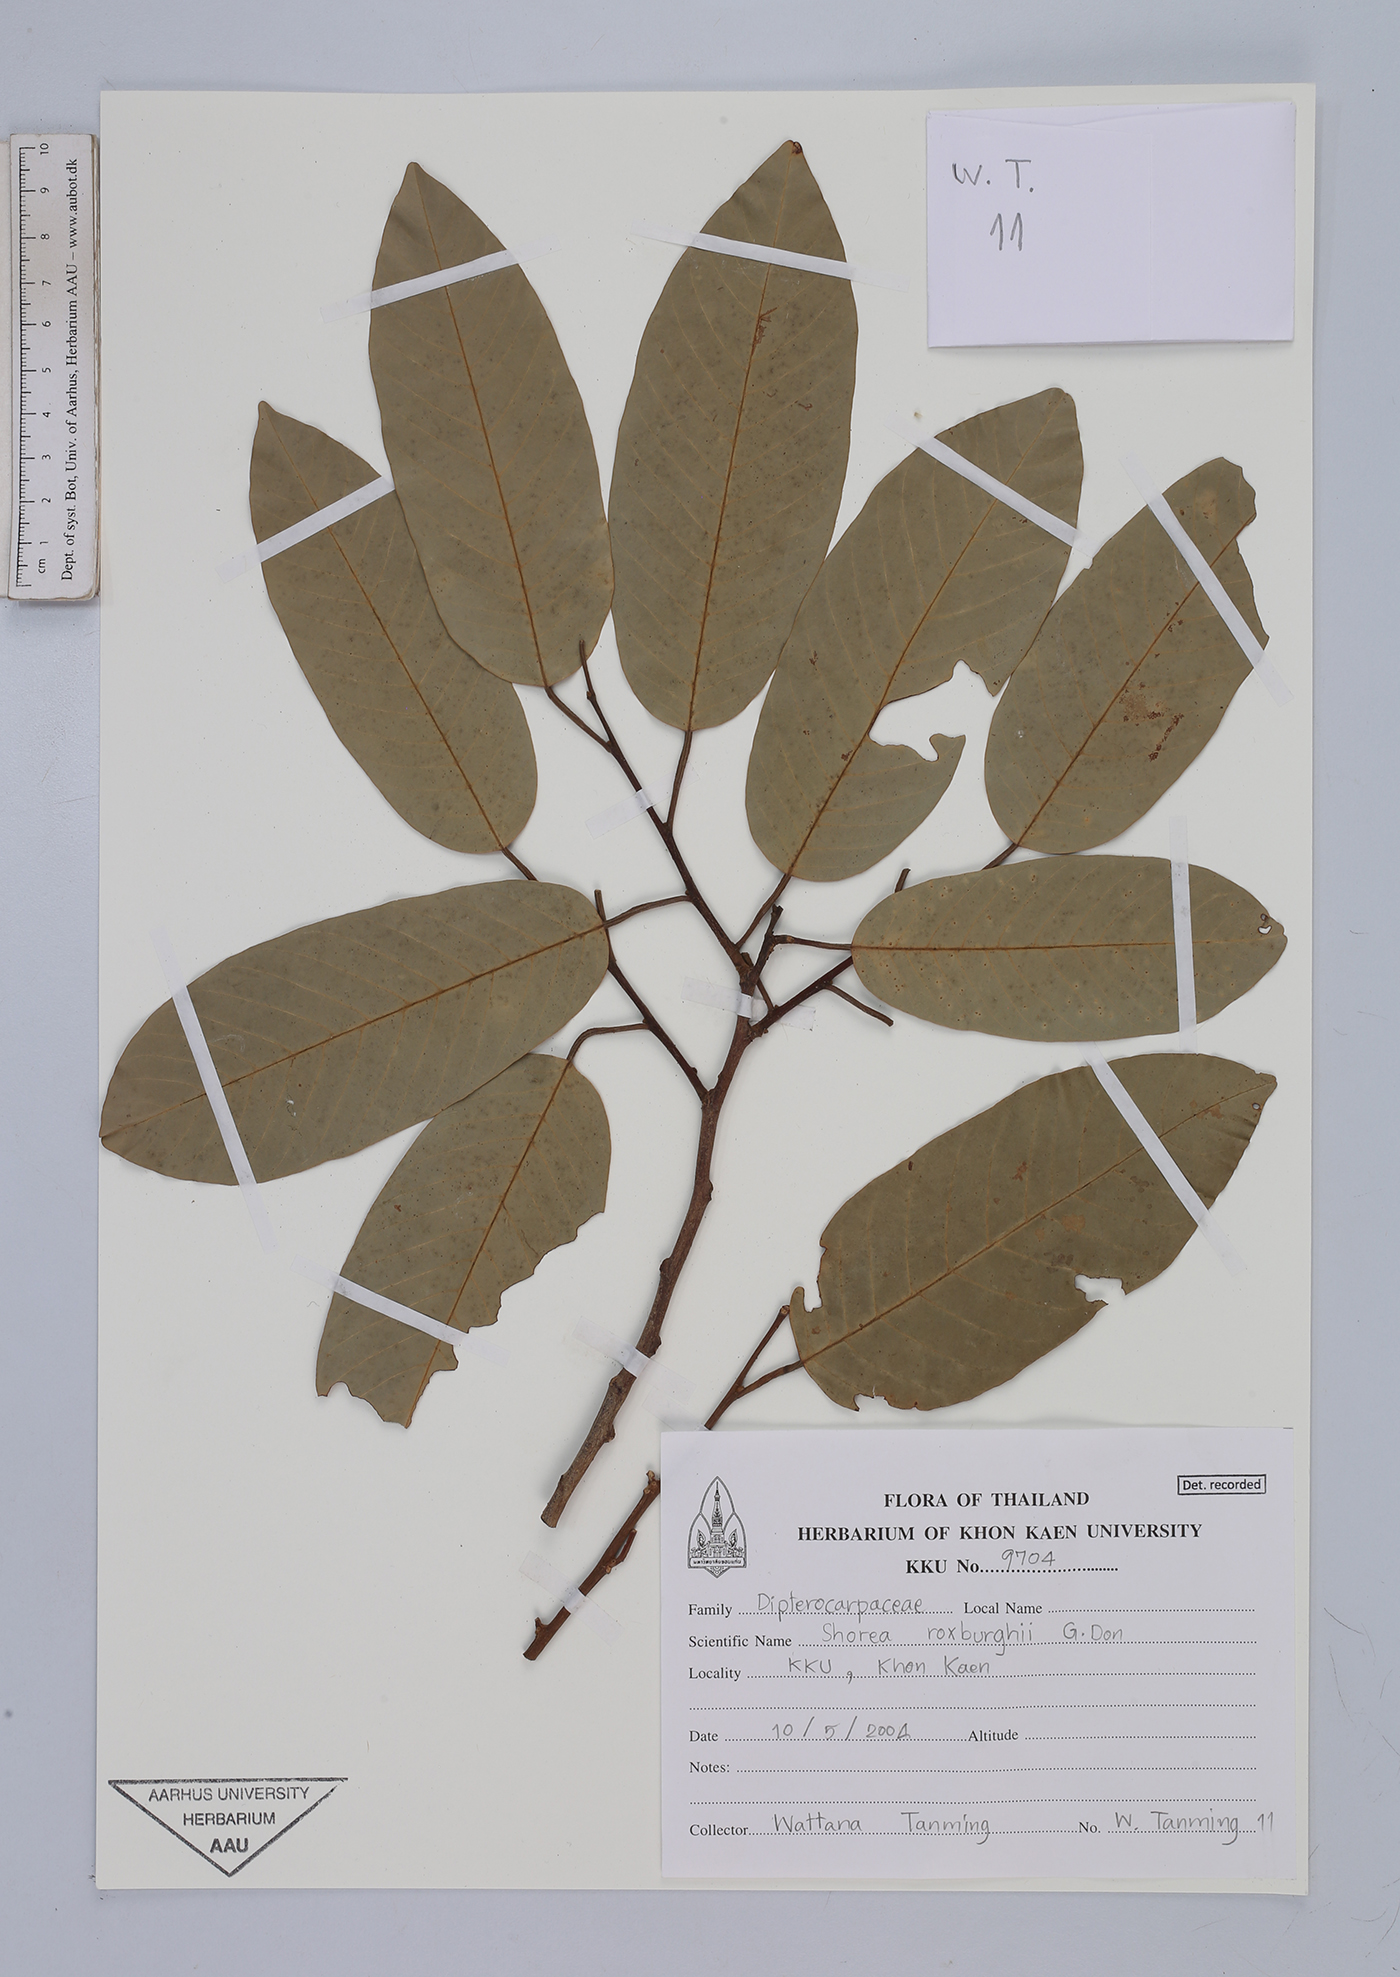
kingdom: Plantae
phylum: Tracheophyta
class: Magnoliopsida
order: Malvales
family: Dipterocarpaceae
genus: Anthoshorea
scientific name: Anthoshorea roxburghii
